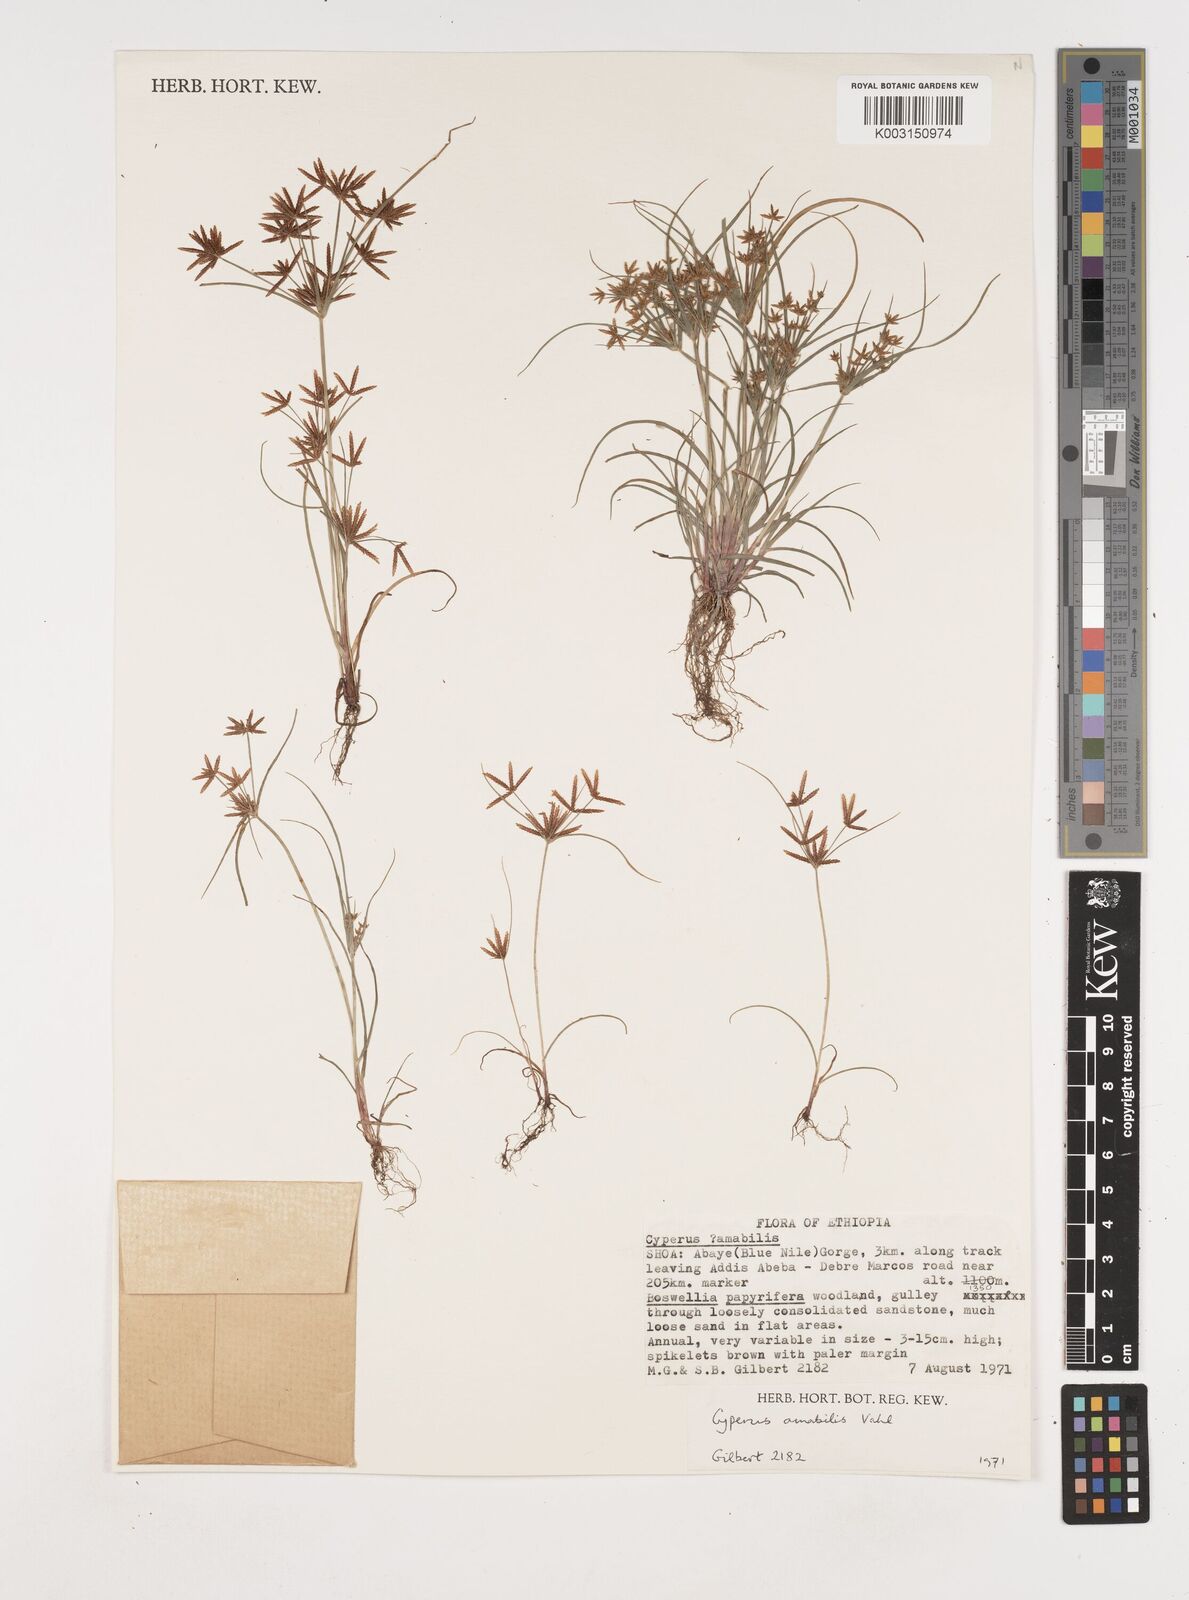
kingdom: Plantae
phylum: Tracheophyta
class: Liliopsida
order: Poales
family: Cyperaceae
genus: Cyperus
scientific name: Cyperus amabilis
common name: Foothill flat sedge
